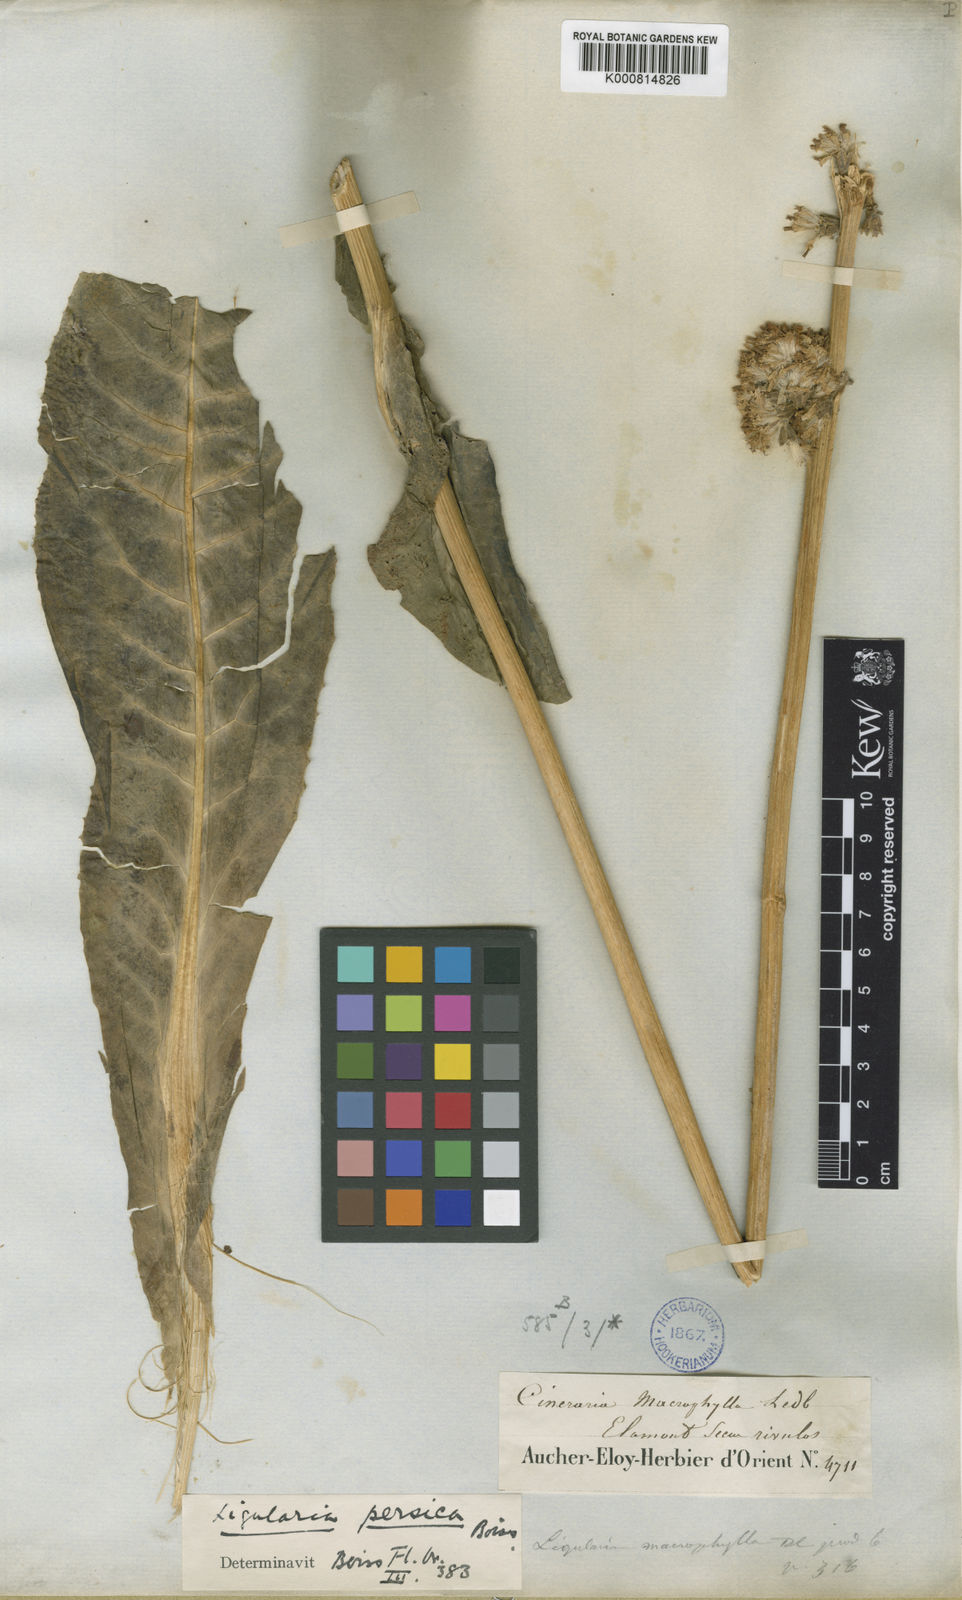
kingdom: Plantae
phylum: Tracheophyta
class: Magnoliopsida
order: Asterales
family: Asteraceae
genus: Dolichorrhiza
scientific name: Dolichorrhiza persica
